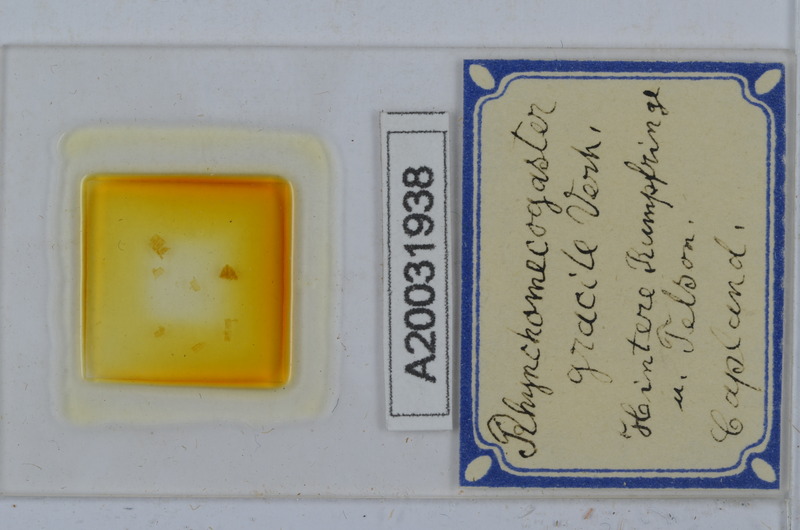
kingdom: Animalia
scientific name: Animalia
